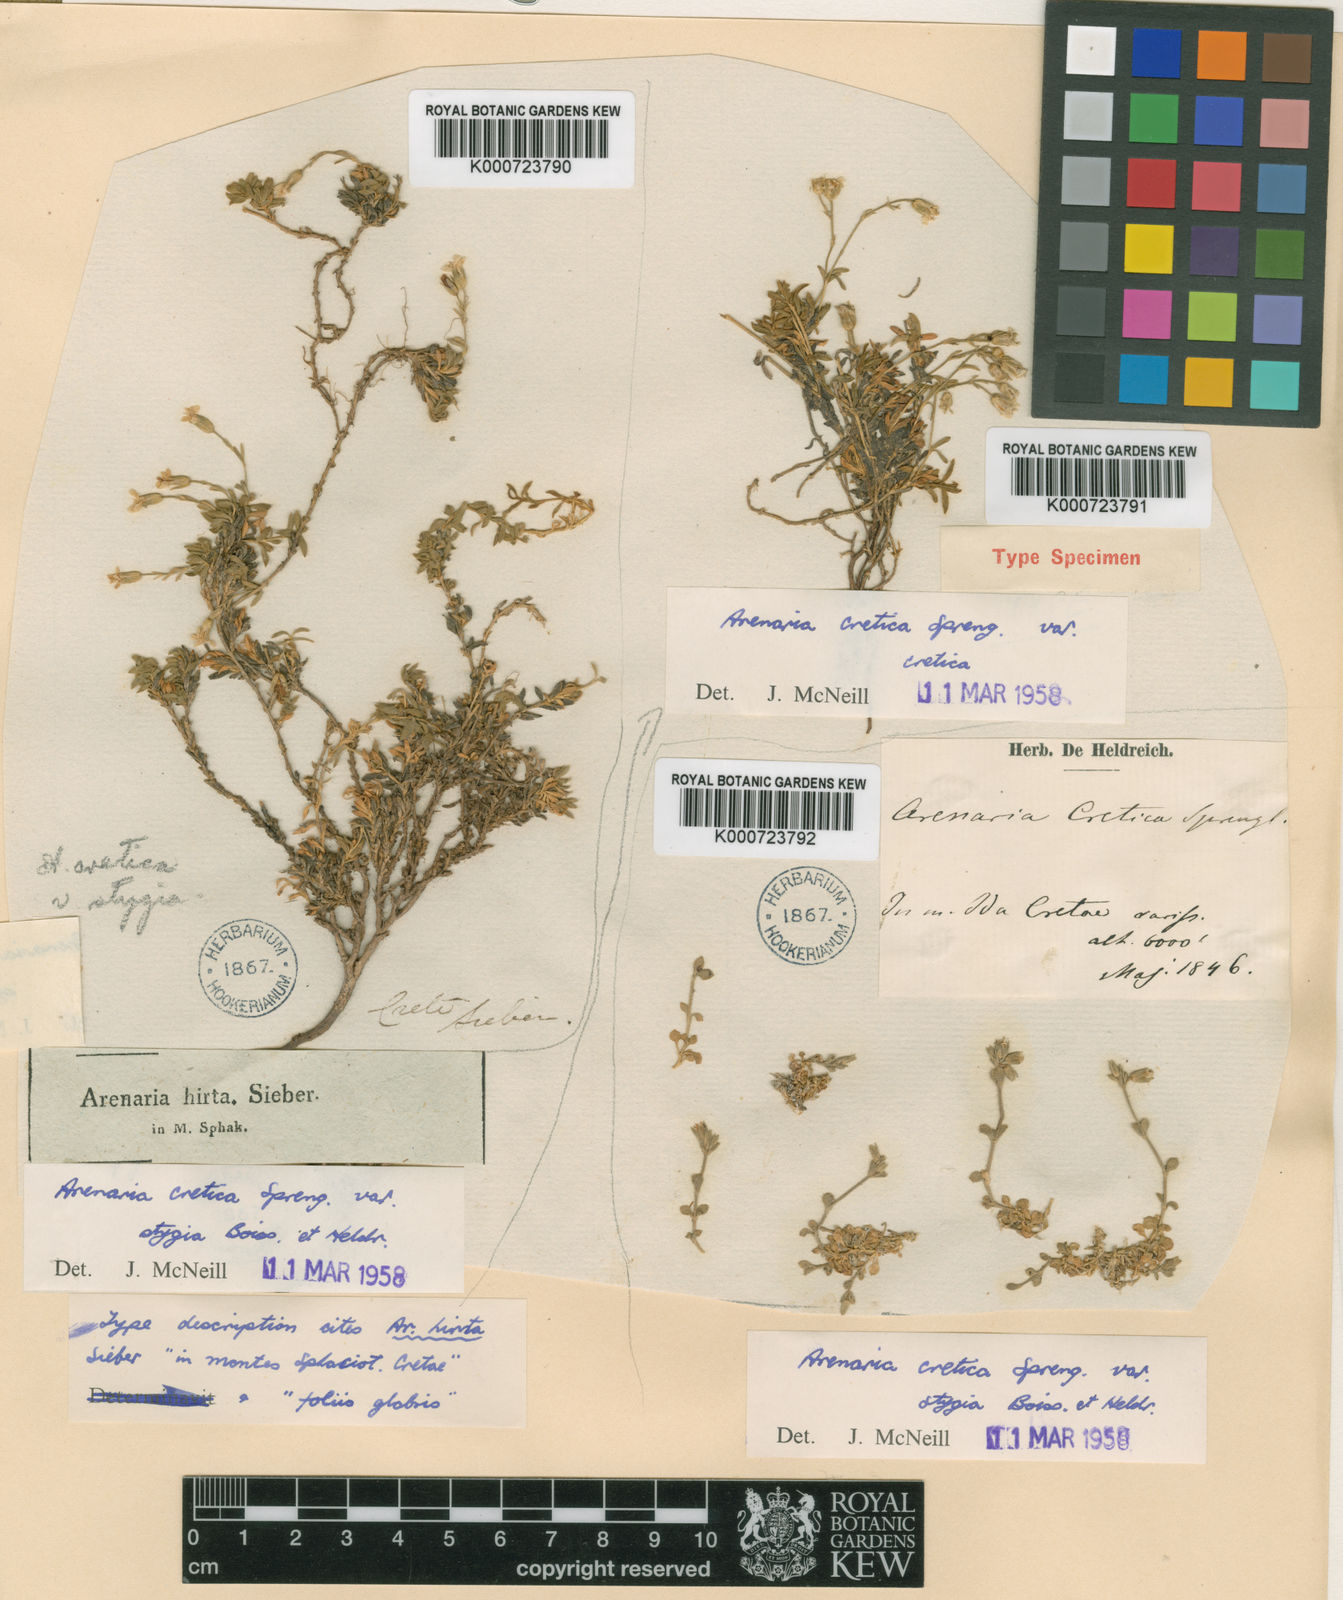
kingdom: Plantae
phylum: Tracheophyta
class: Magnoliopsida
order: Caryophyllales
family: Caryophyllaceae
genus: Arenaria
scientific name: Arenaria cretica
